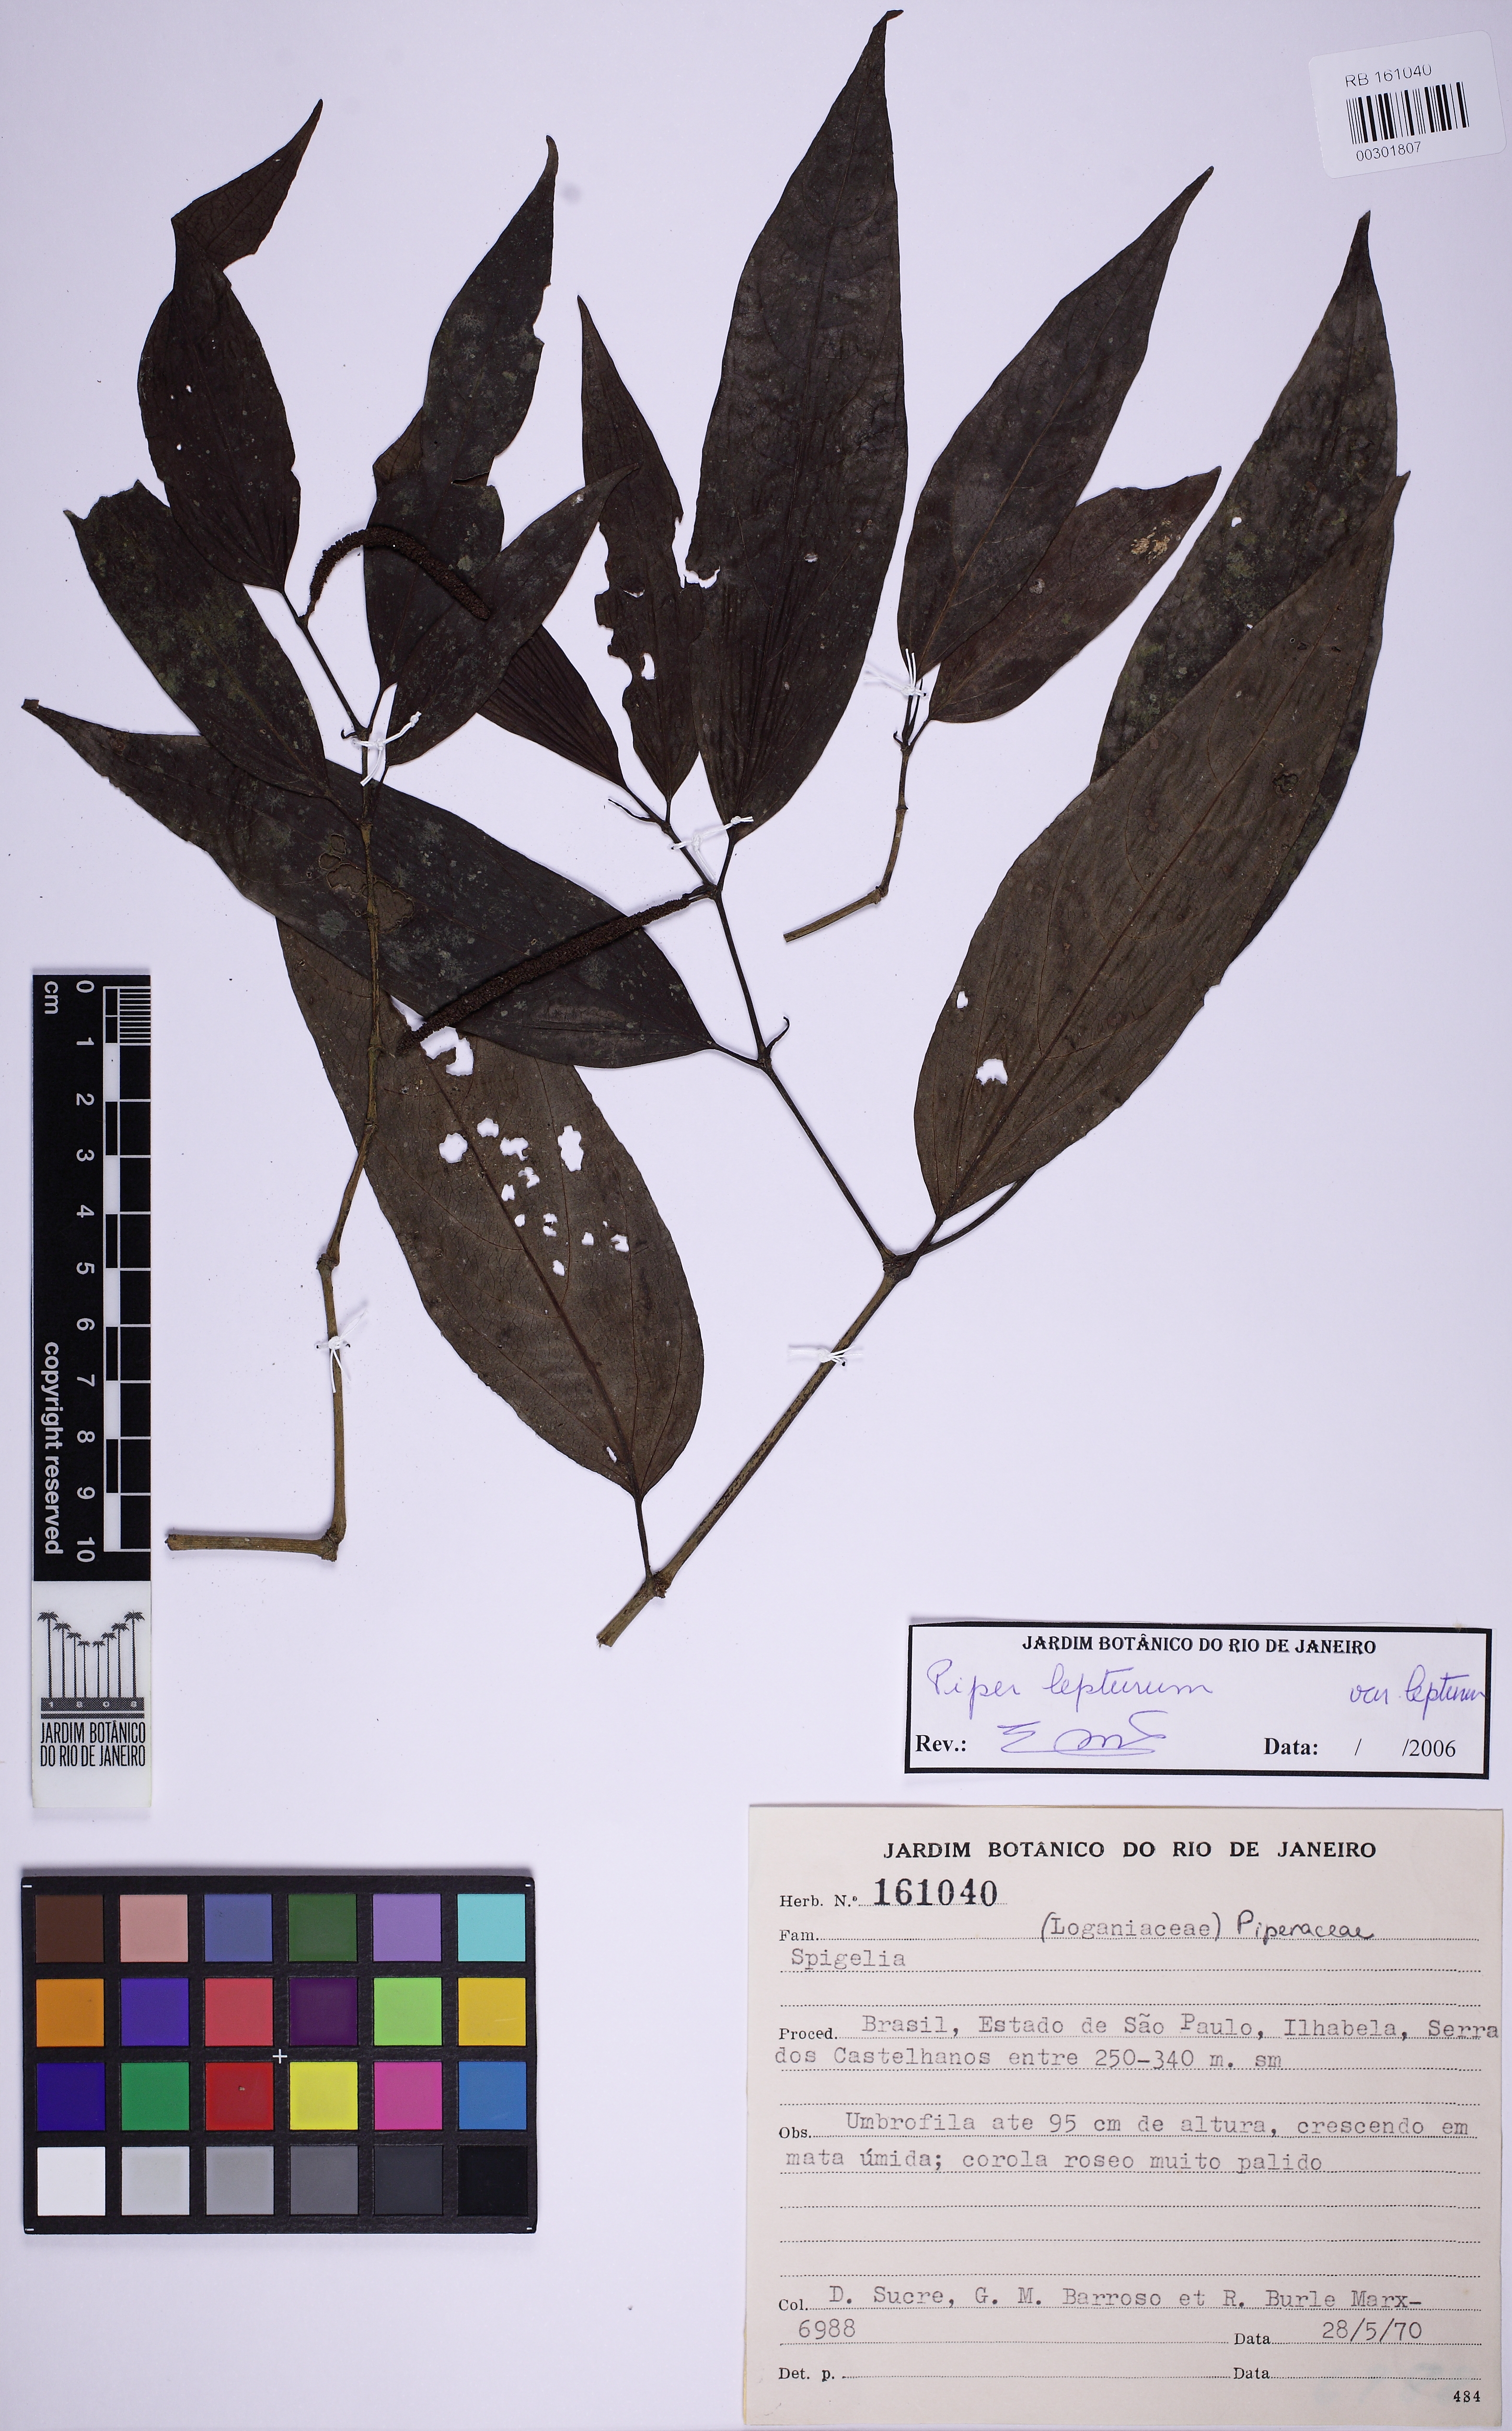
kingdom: Plantae
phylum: Tracheophyta
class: Magnoliopsida
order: Piperales
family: Piperaceae
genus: Piper
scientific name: Piper lepturum
